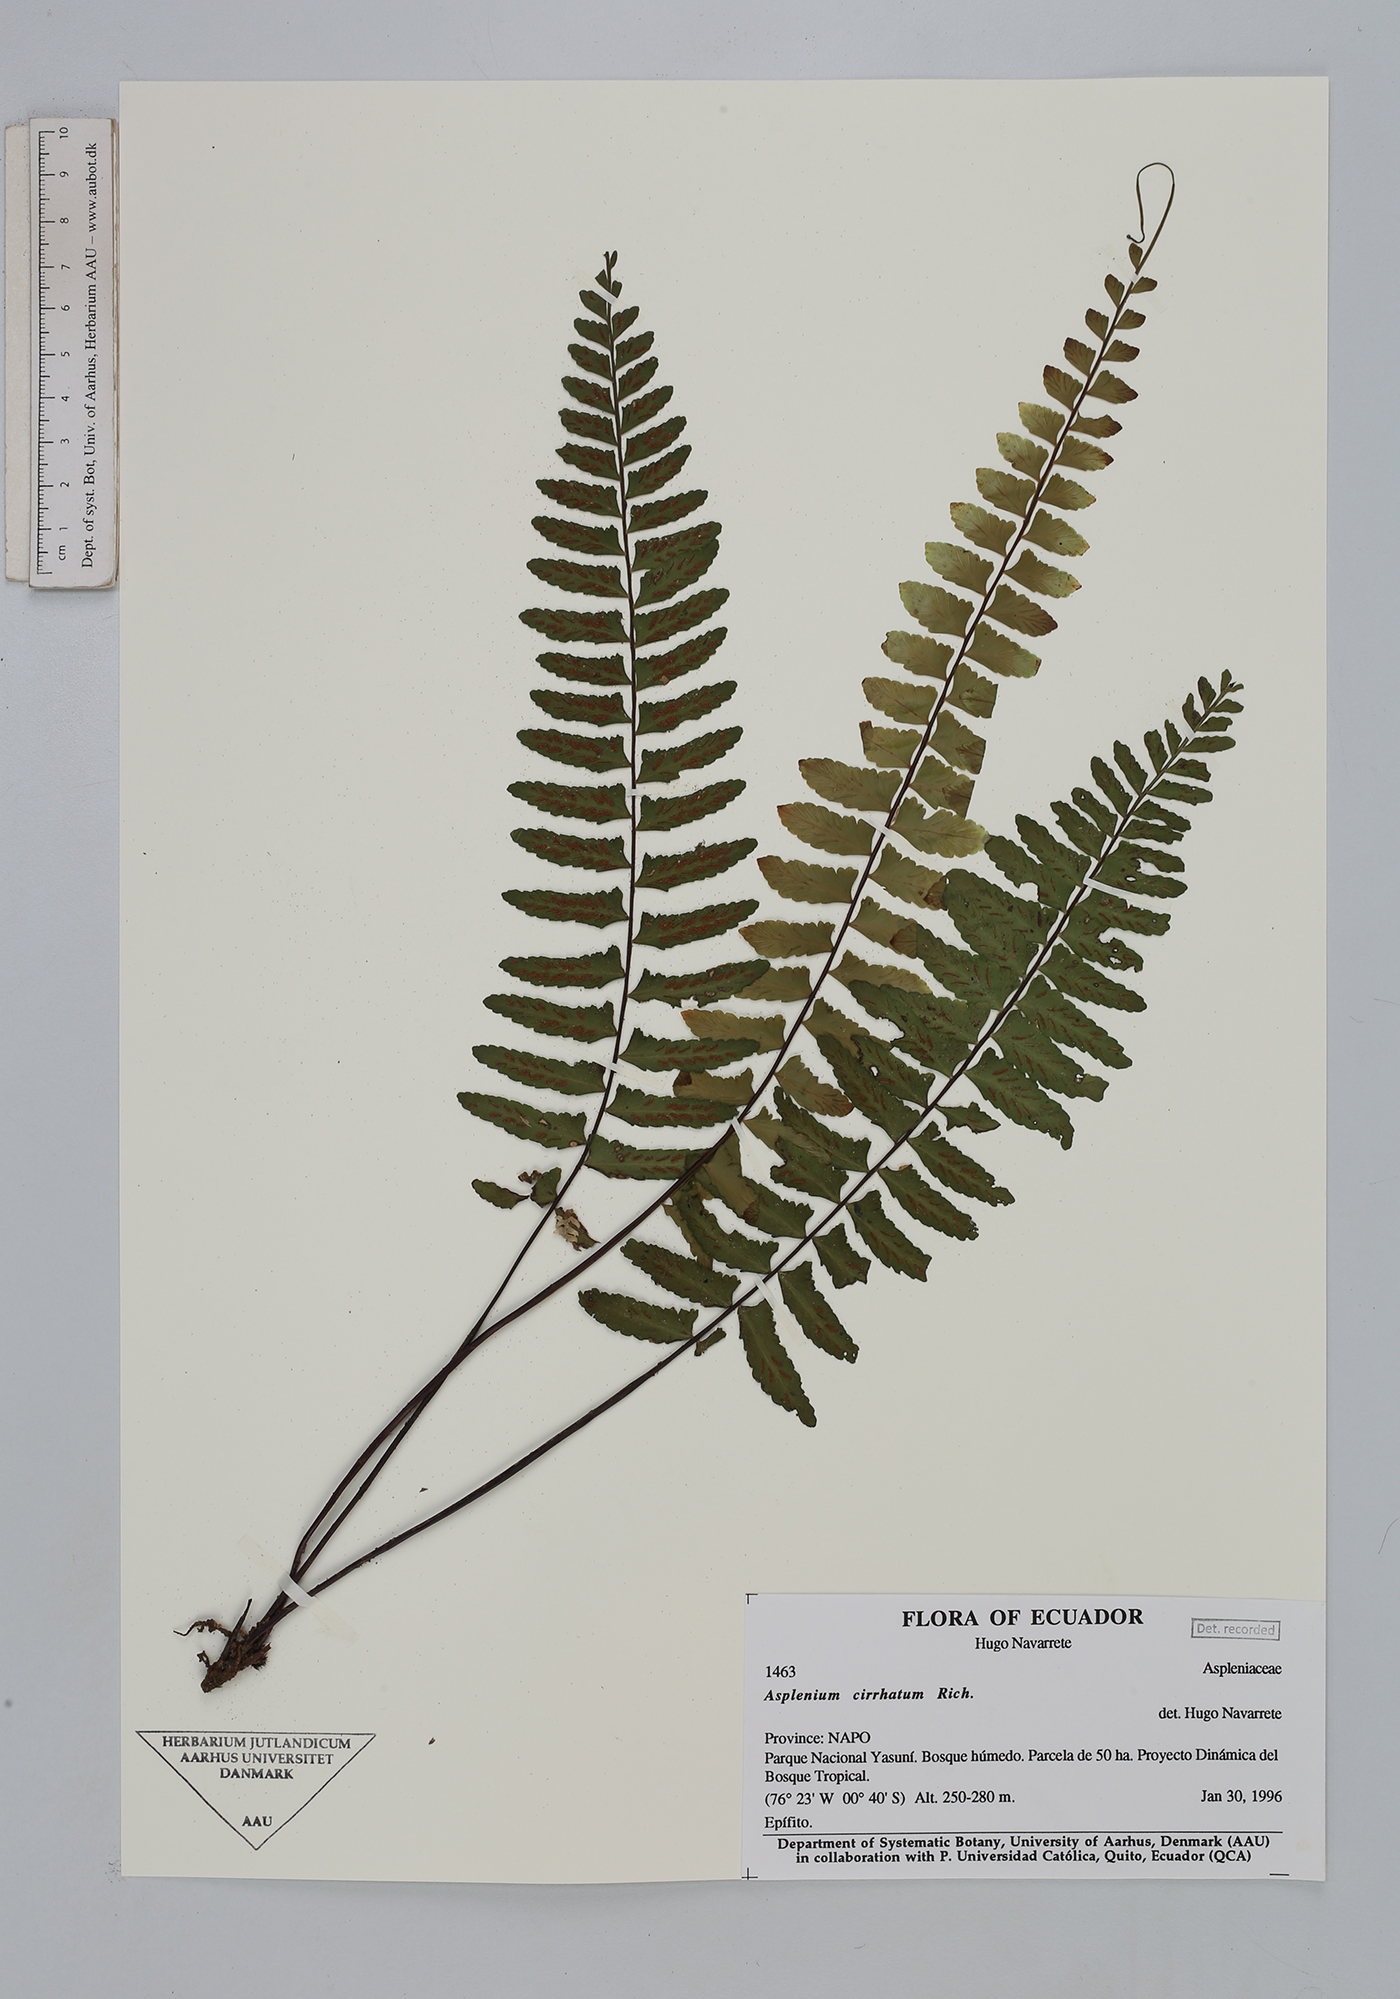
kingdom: Plantae
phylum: Tracheophyta
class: Polypodiopsida
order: Polypodiales
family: Aspleniaceae
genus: Asplenium
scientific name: Asplenium
